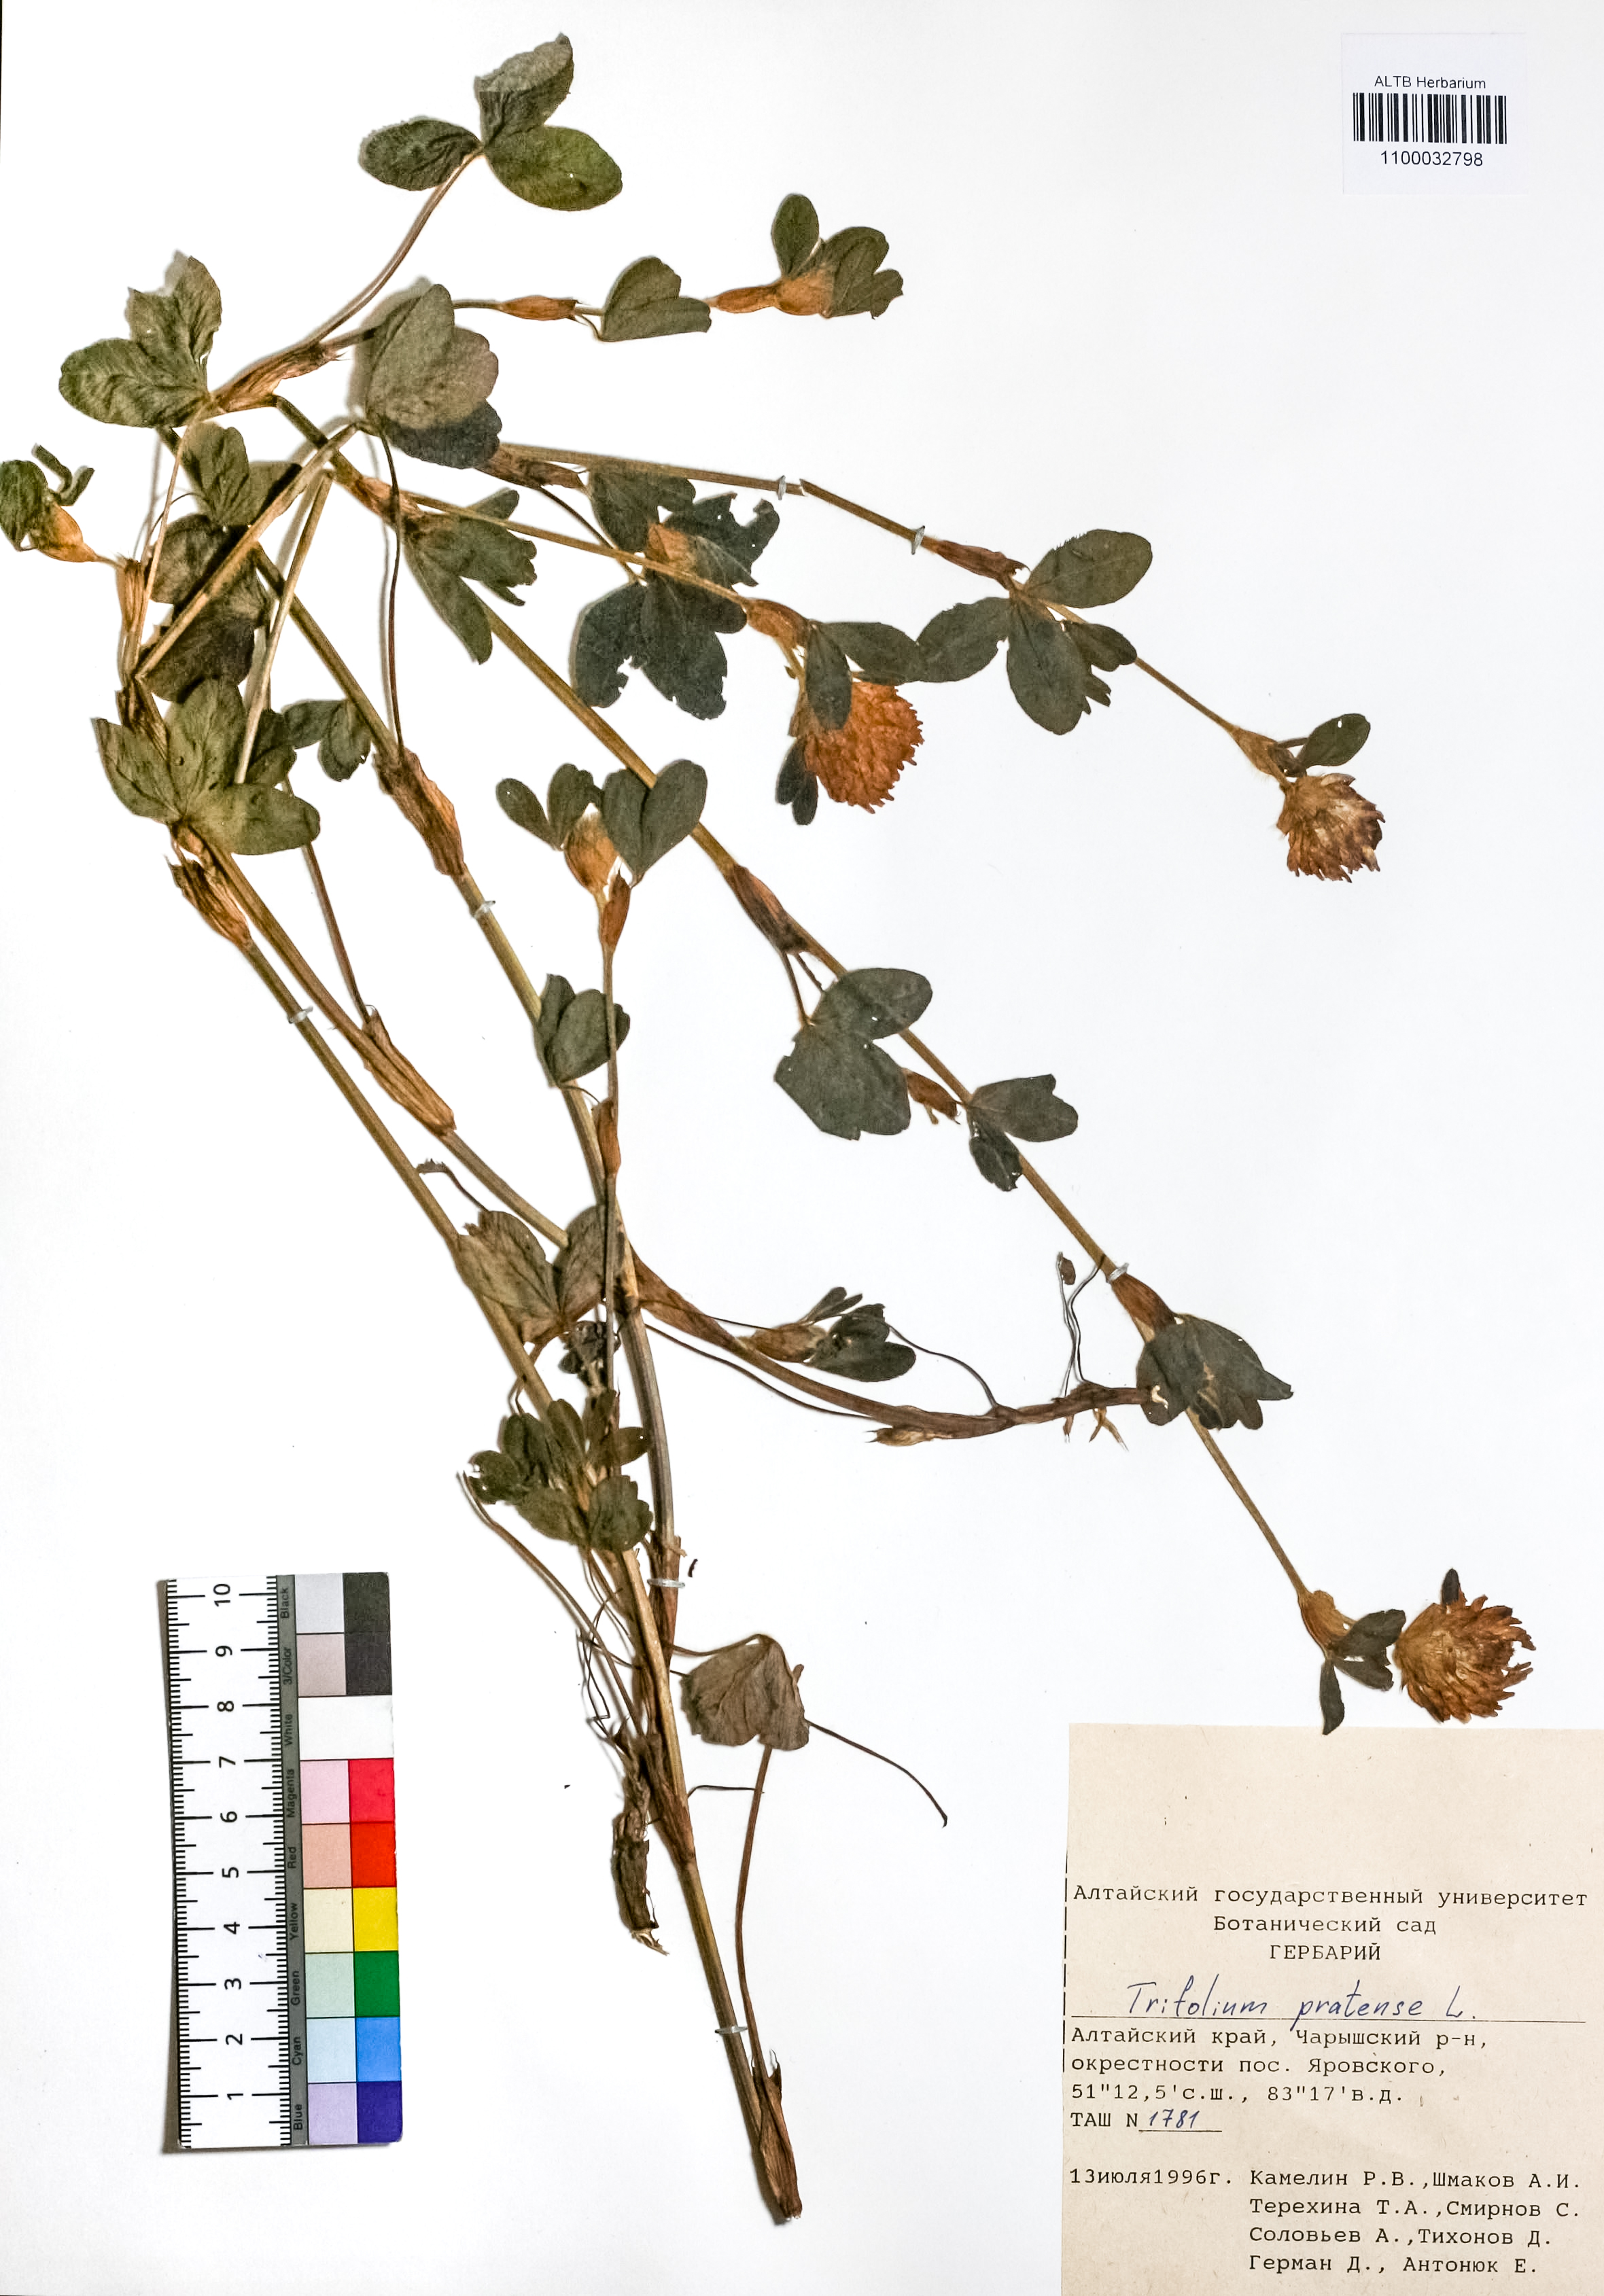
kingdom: Plantae
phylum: Tracheophyta
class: Magnoliopsida
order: Fabales
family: Fabaceae
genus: Trifolium
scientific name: Trifolium pratense
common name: Red clover
